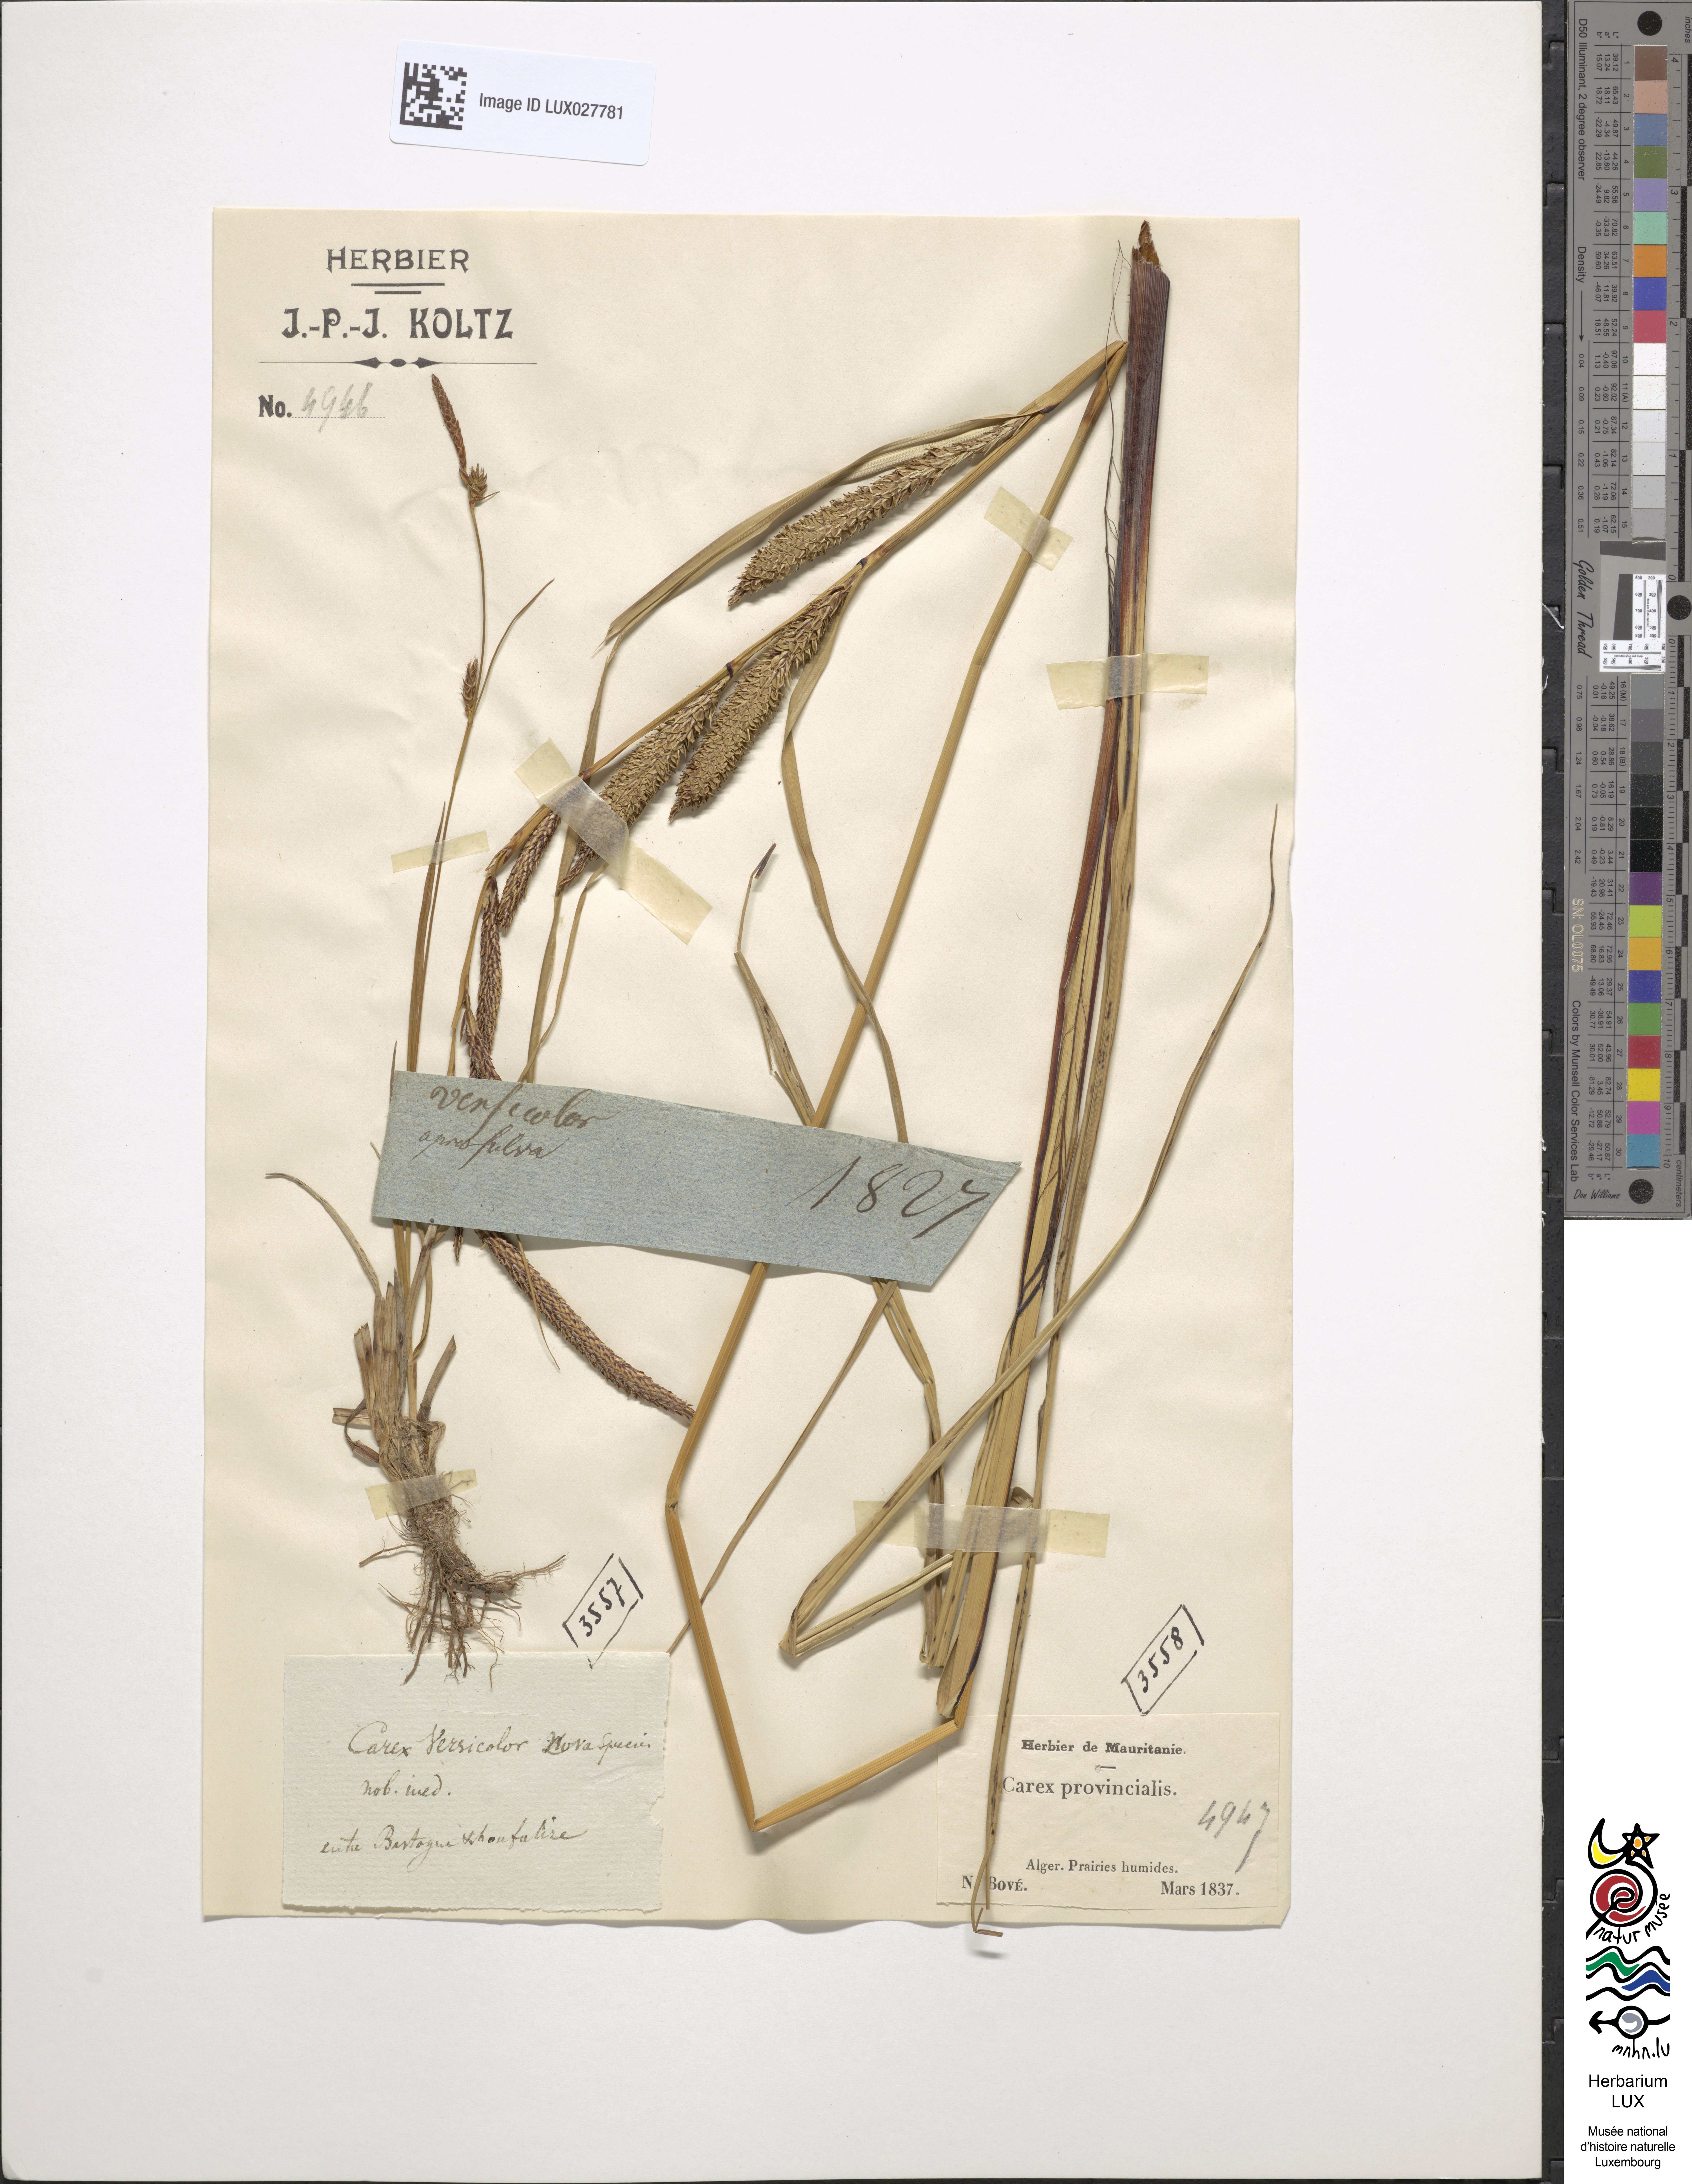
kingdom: Plantae
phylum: Tracheophyta
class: Liliopsida
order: Poales
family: Cyperaceae
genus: Carex
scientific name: Carex binervis
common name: Green-ribbed sedge
